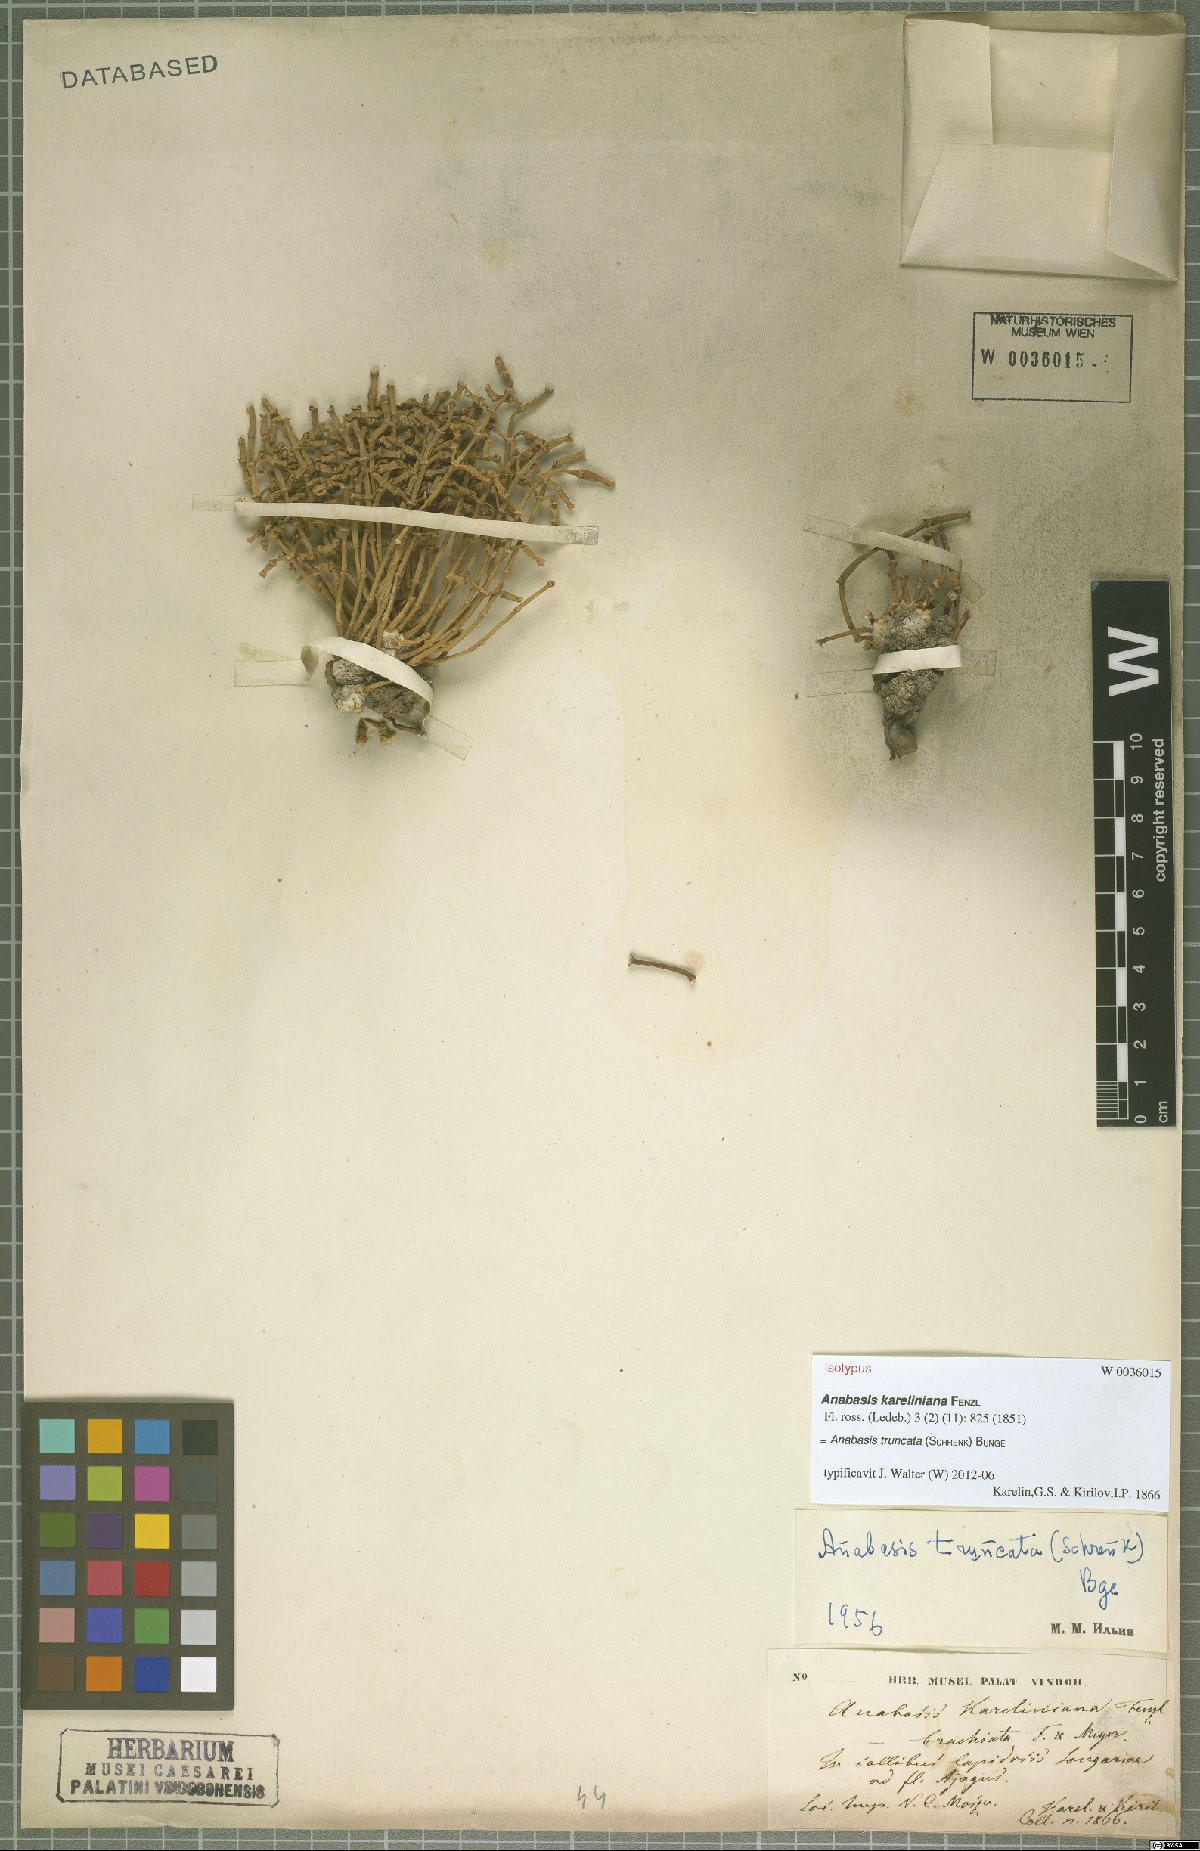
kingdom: Plantae
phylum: Tracheophyta
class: Magnoliopsida
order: Caryophyllales
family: Amaranthaceae
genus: Anabasis
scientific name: Anabasis truncata
